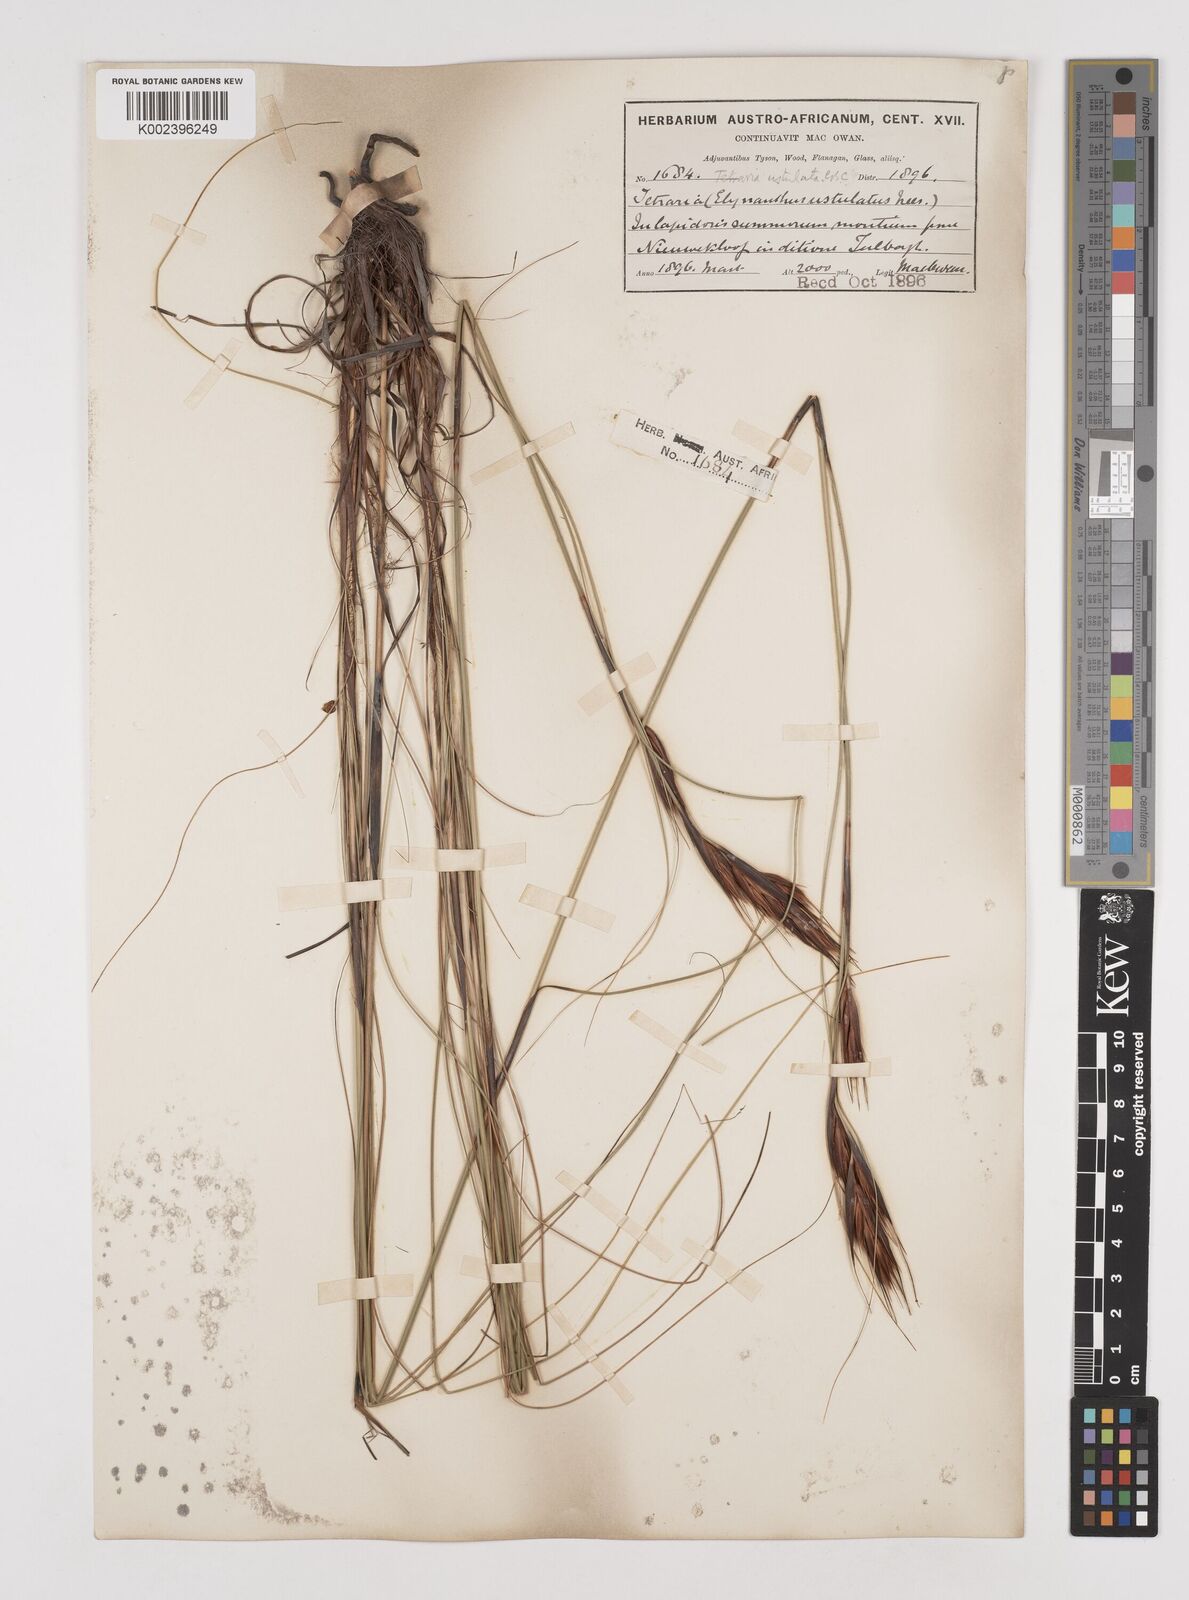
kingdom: Plantae
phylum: Tracheophyta
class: Liliopsida
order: Poales
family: Cyperaceae
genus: Tetraria
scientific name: Tetraria ustulata
